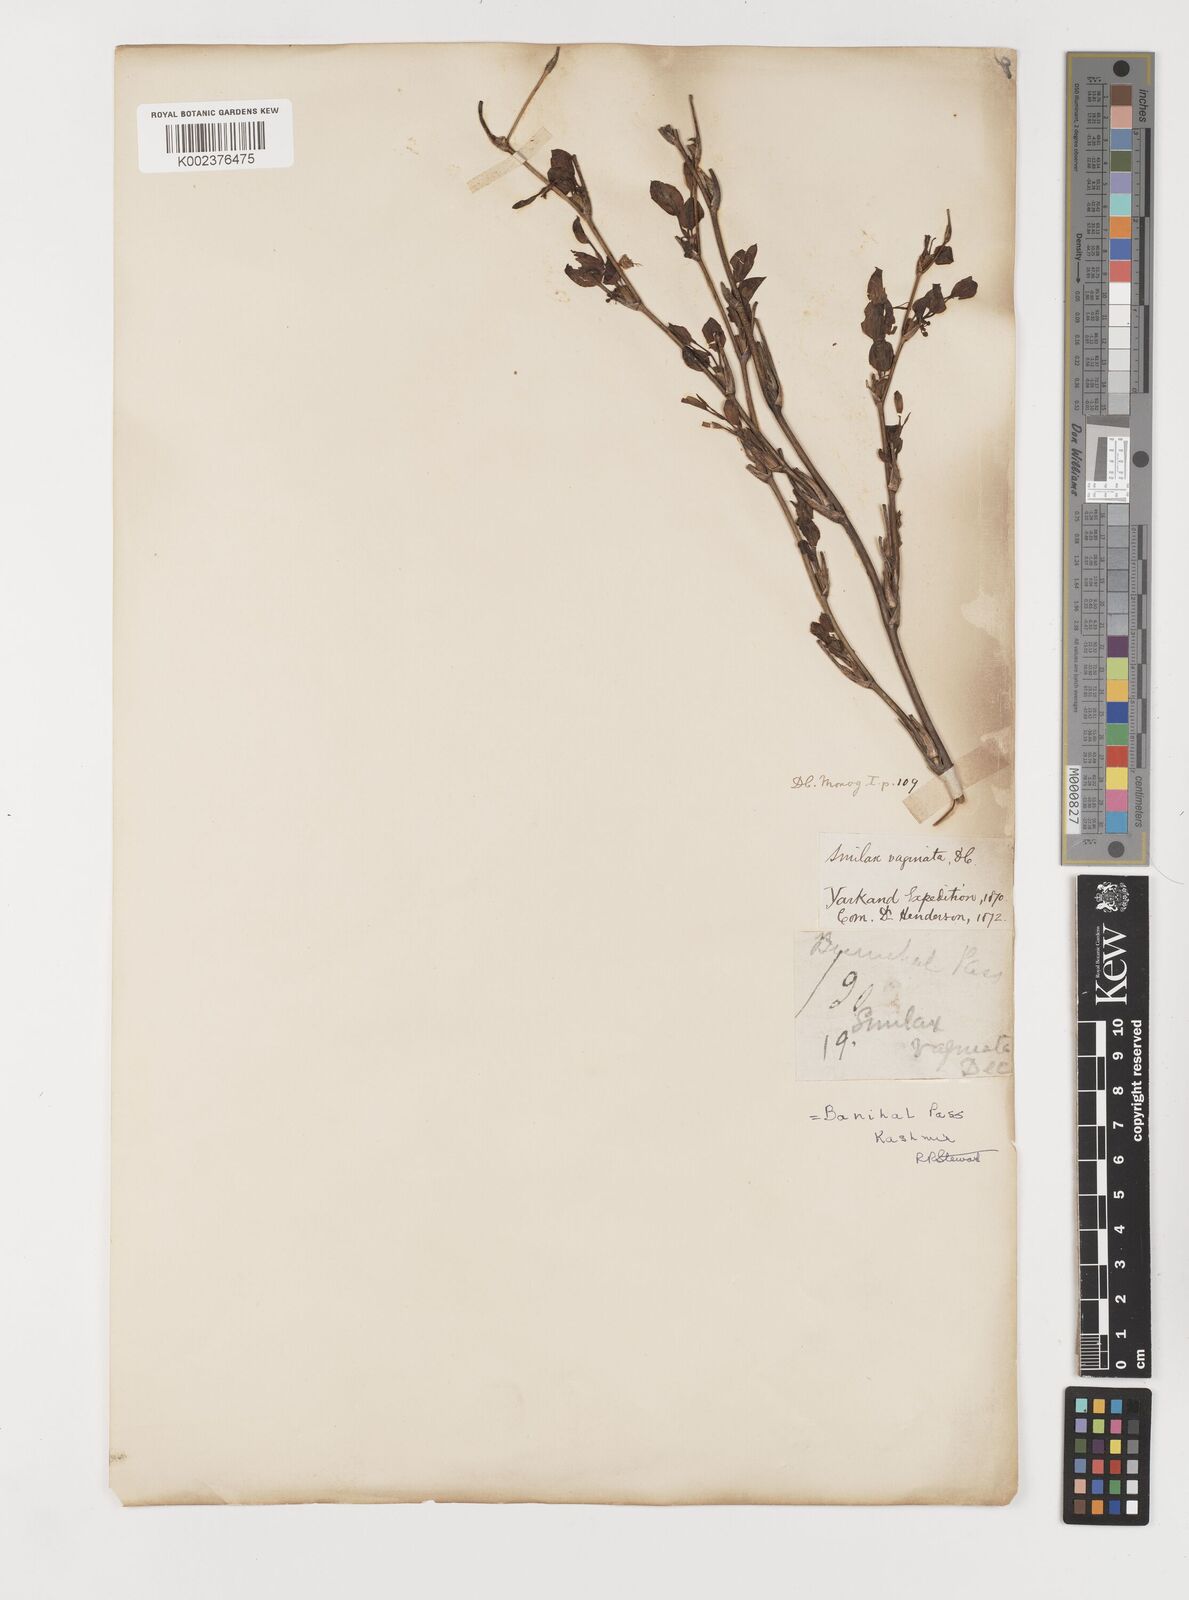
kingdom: Plantae
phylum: Tracheophyta
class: Liliopsida
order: Liliales
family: Smilacaceae
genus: Smilax
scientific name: Smilax vaginata
